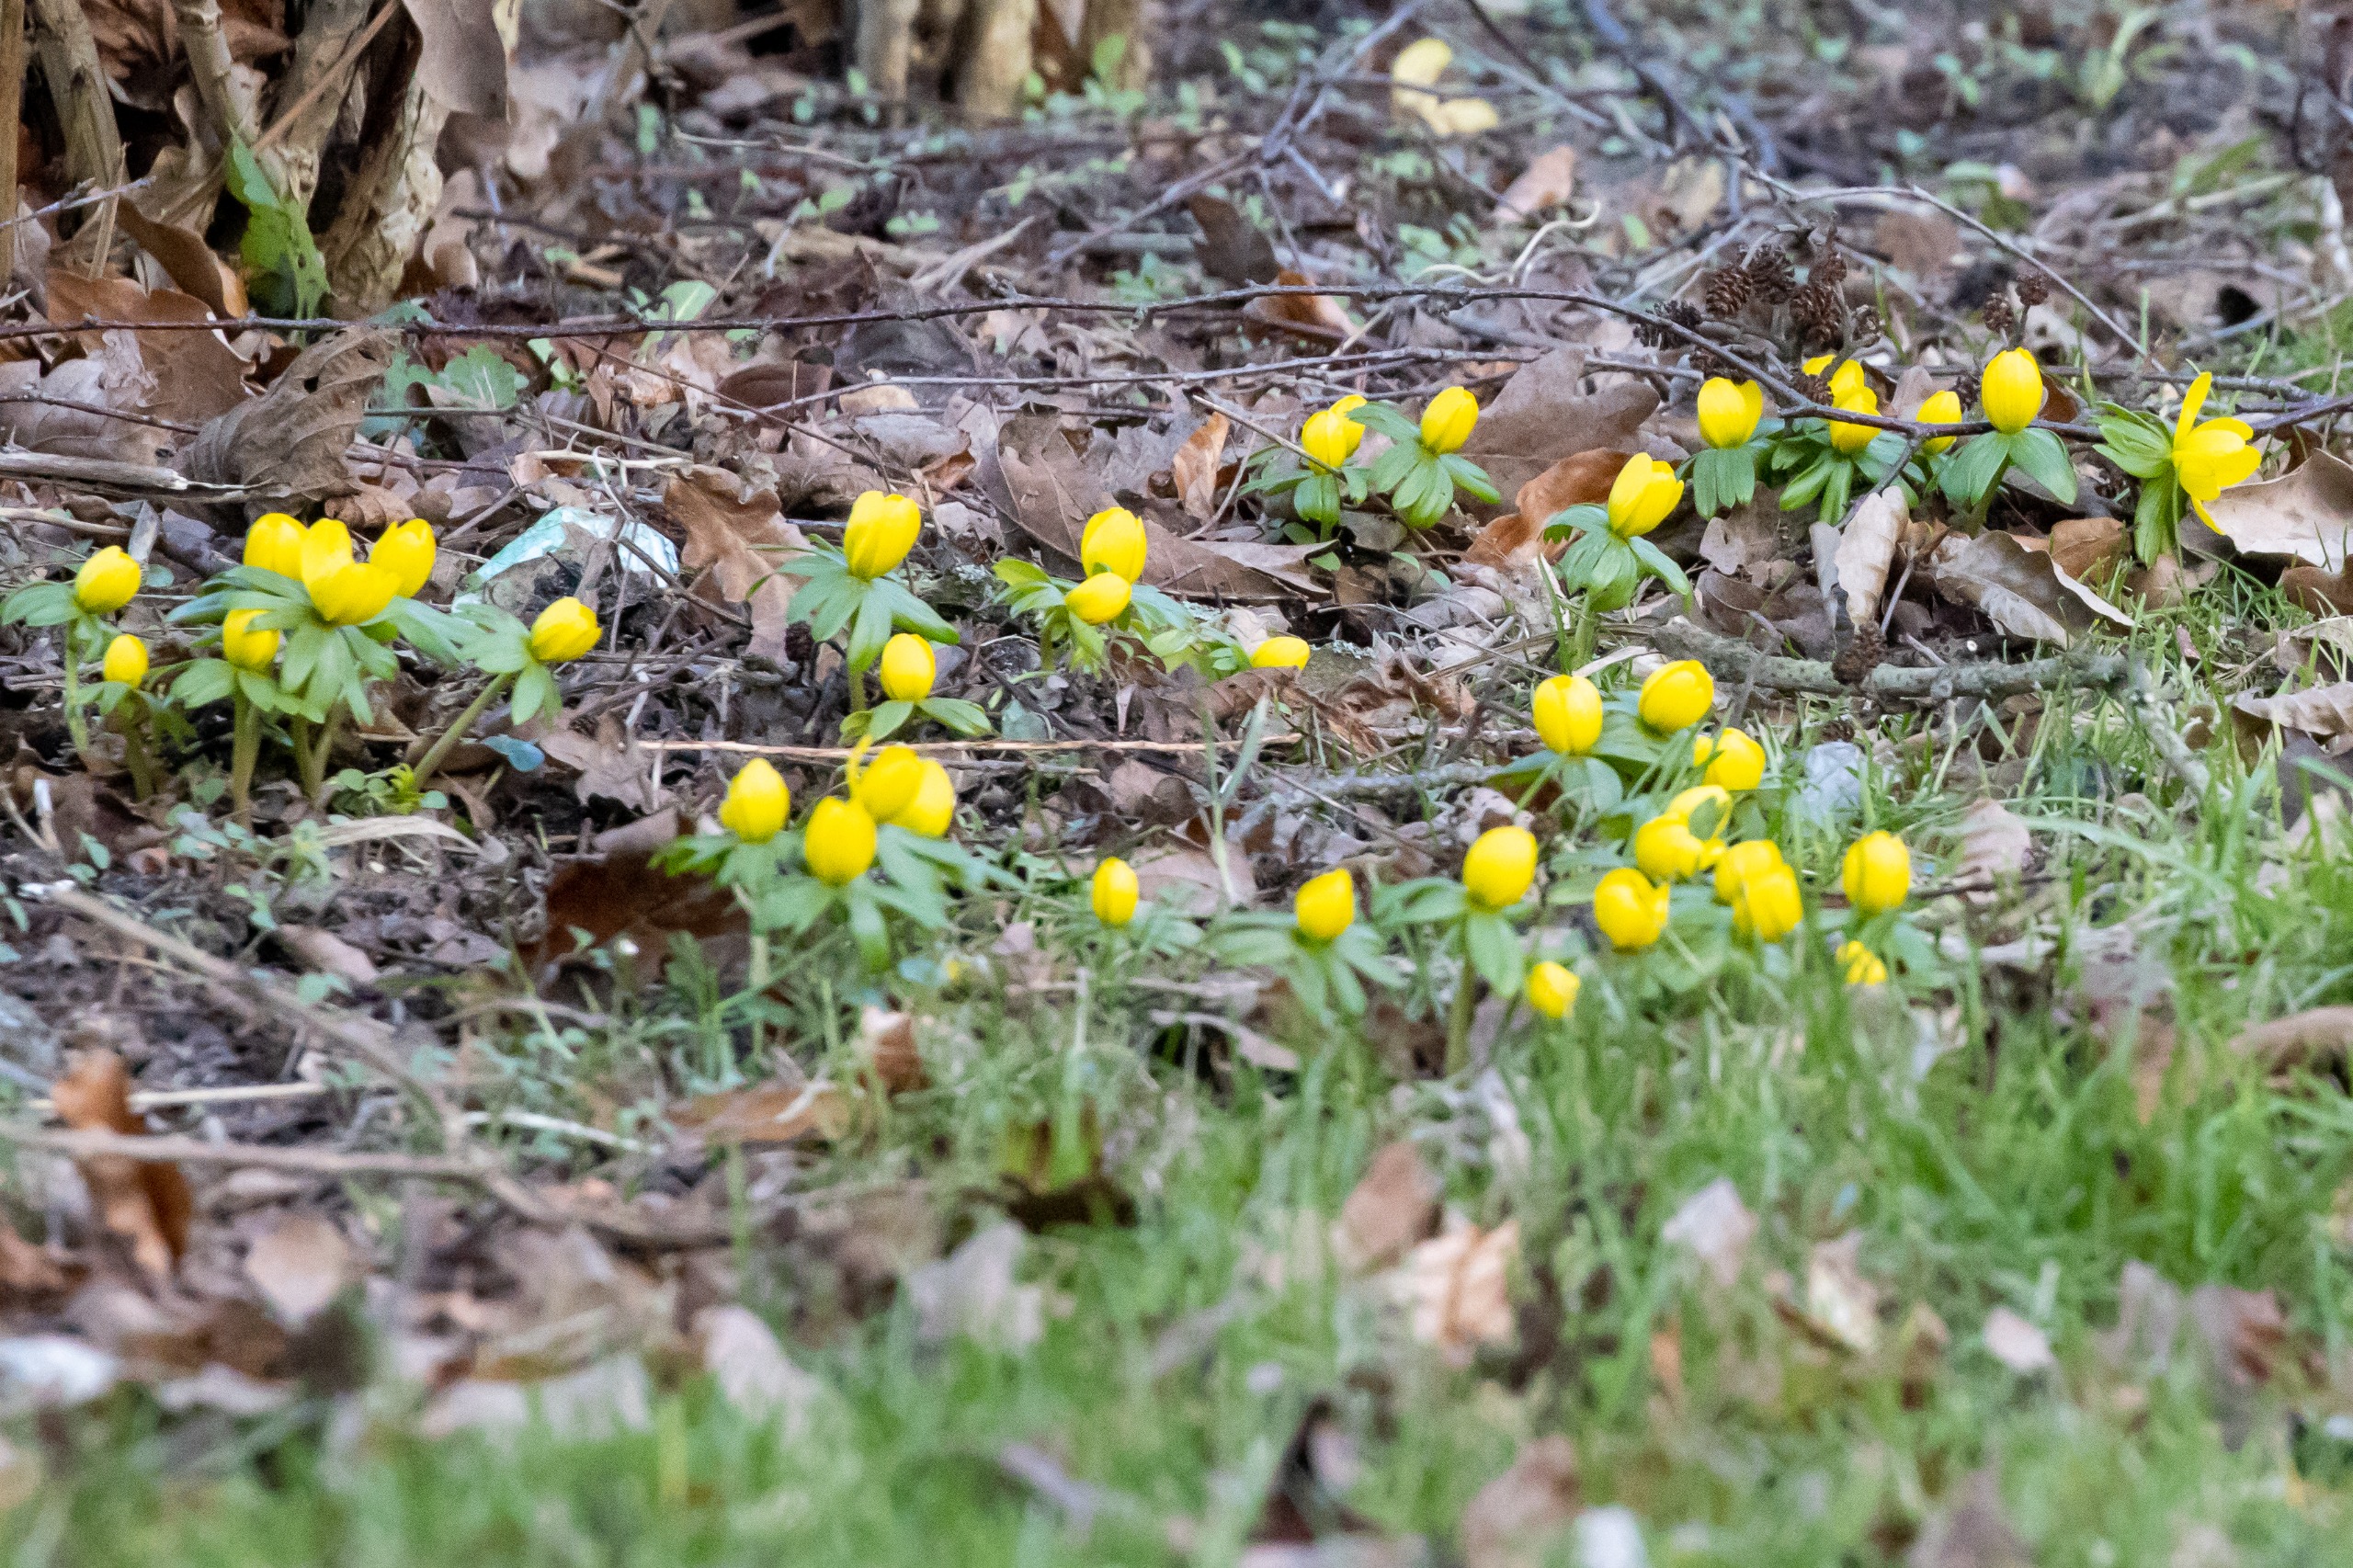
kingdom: Plantae
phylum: Tracheophyta
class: Magnoliopsida
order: Ranunculales
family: Ranunculaceae
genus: Eranthis
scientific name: Eranthis hyemalis
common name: Erantis
